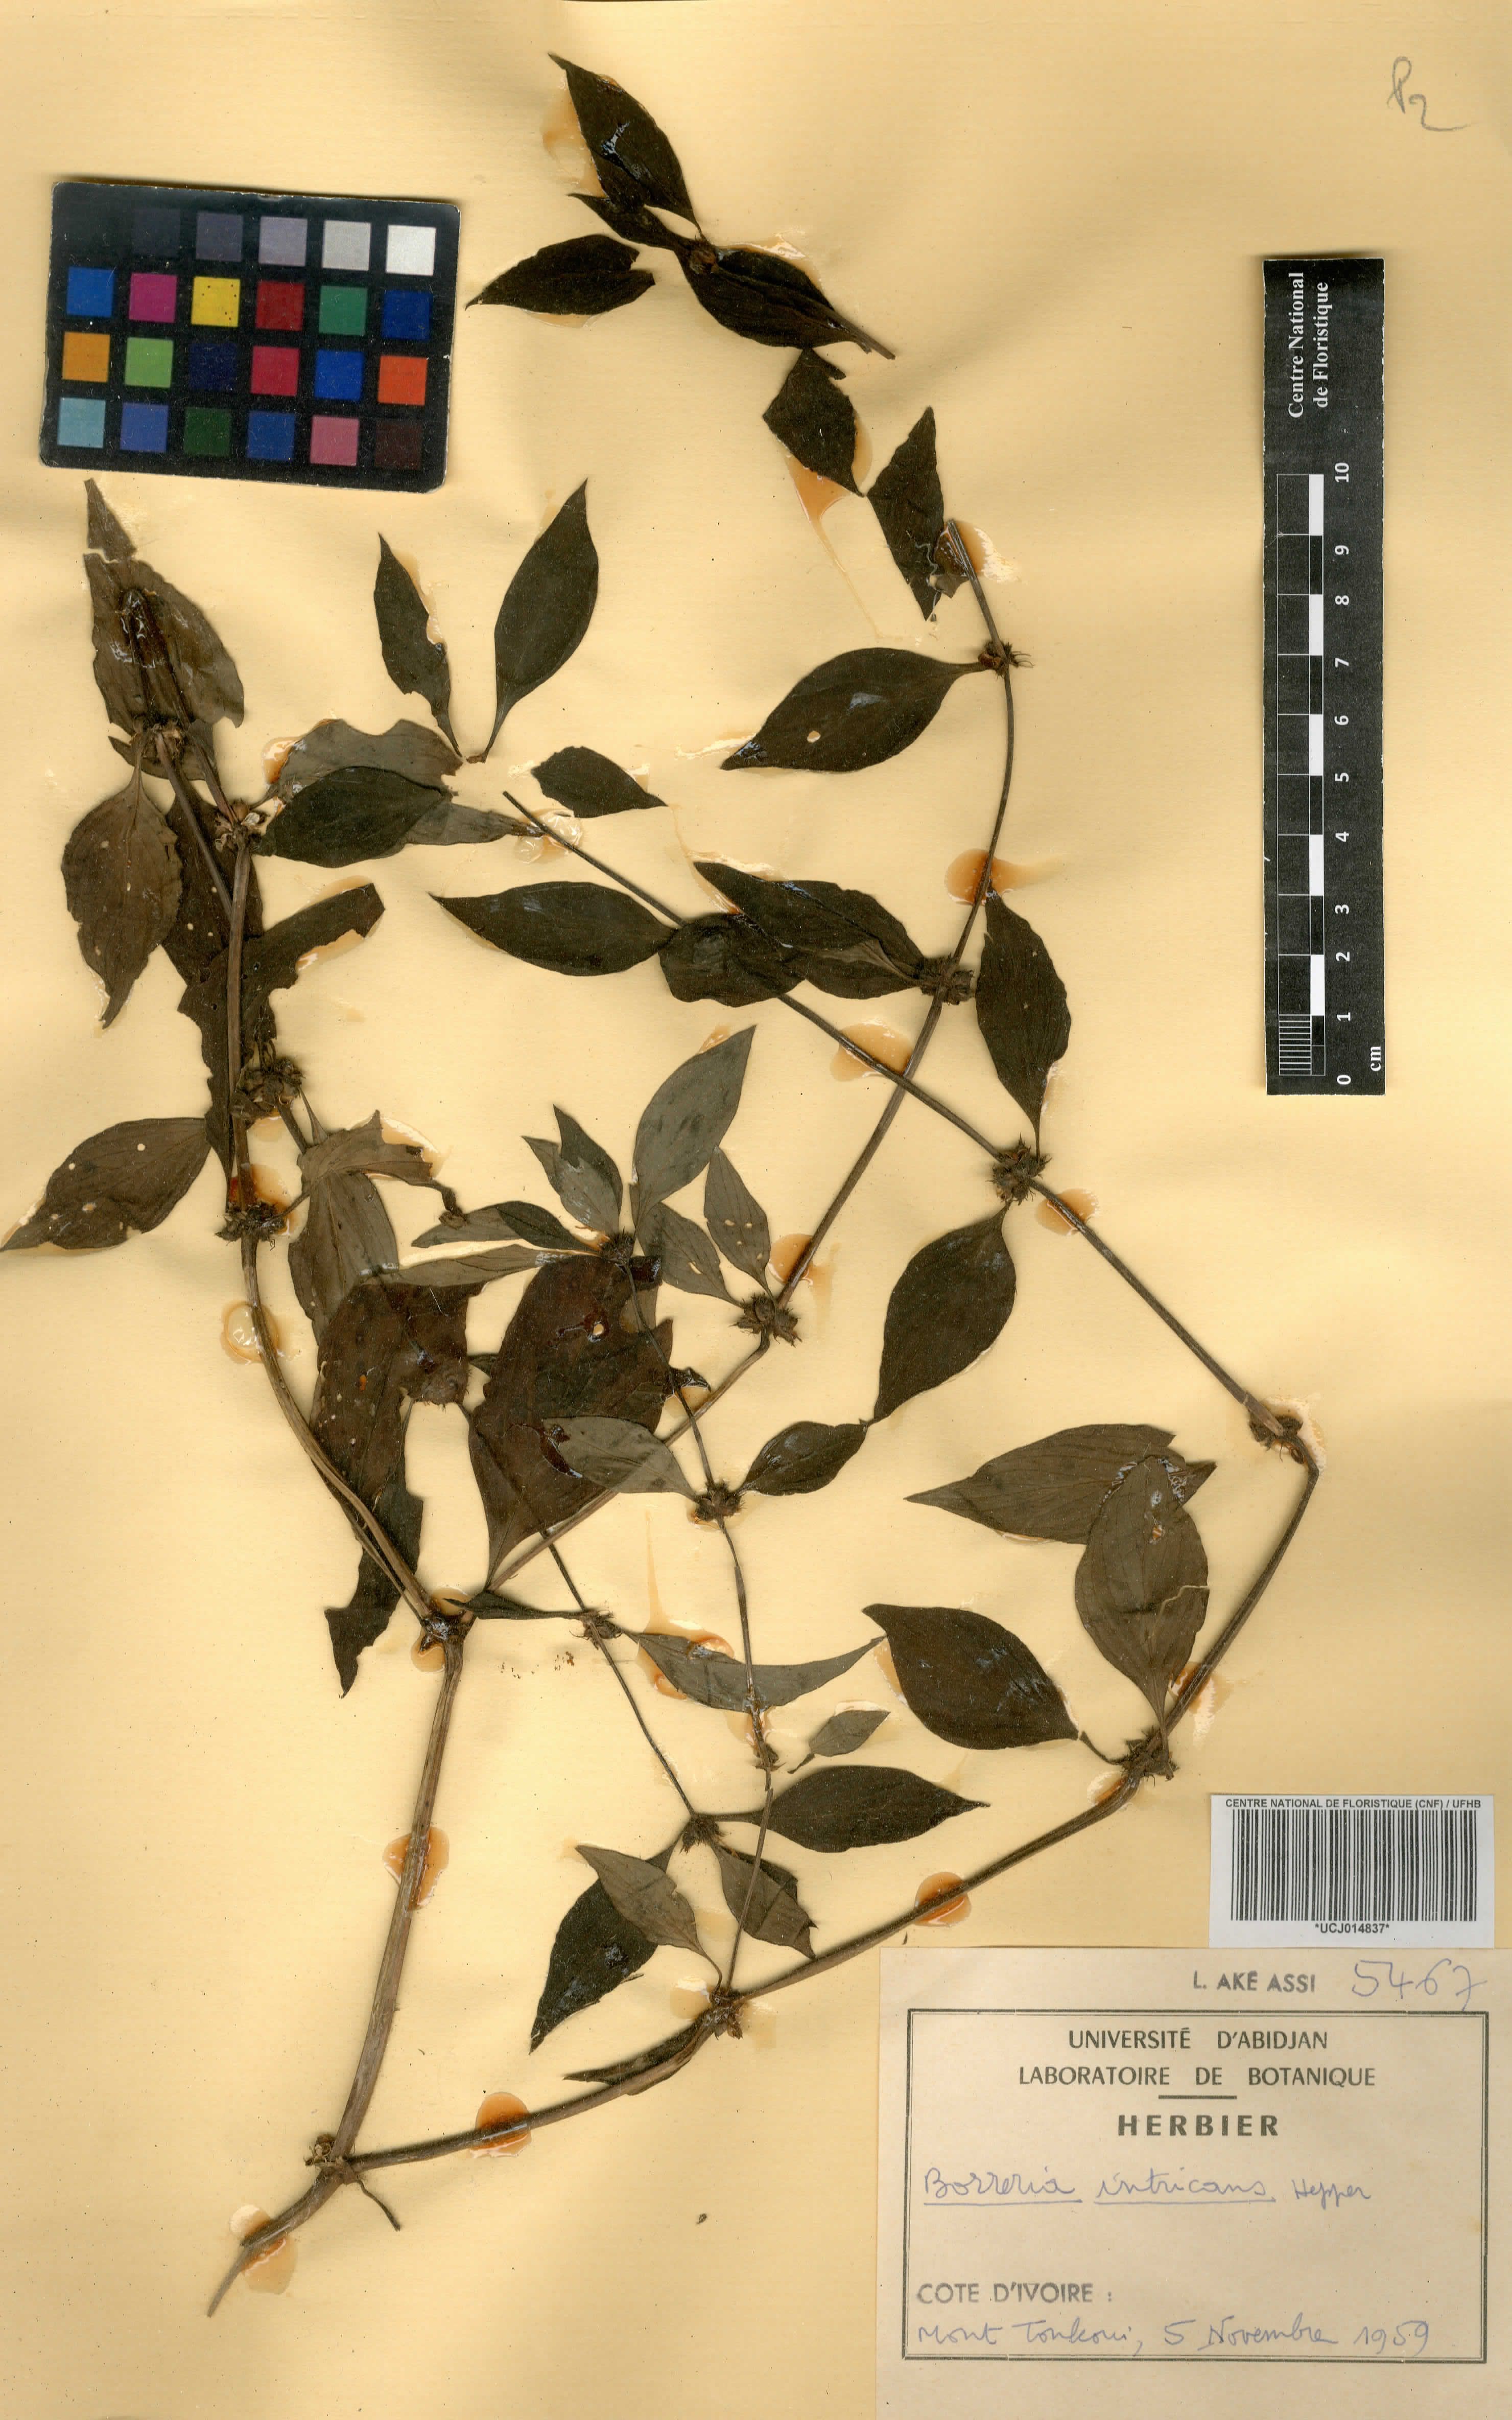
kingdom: Plantae
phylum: Tracheophyta
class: Magnoliopsida
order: Gentianales
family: Rubiaceae
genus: Spermacoce
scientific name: Spermacoce intricans
